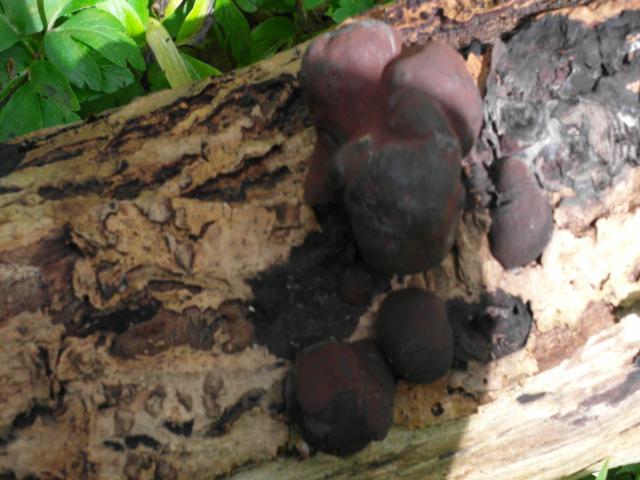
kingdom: Fungi
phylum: Ascomycota
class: Sordariomycetes
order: Xylariales
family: Hypoxylaceae
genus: Daldinia
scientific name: Daldinia concentrica
